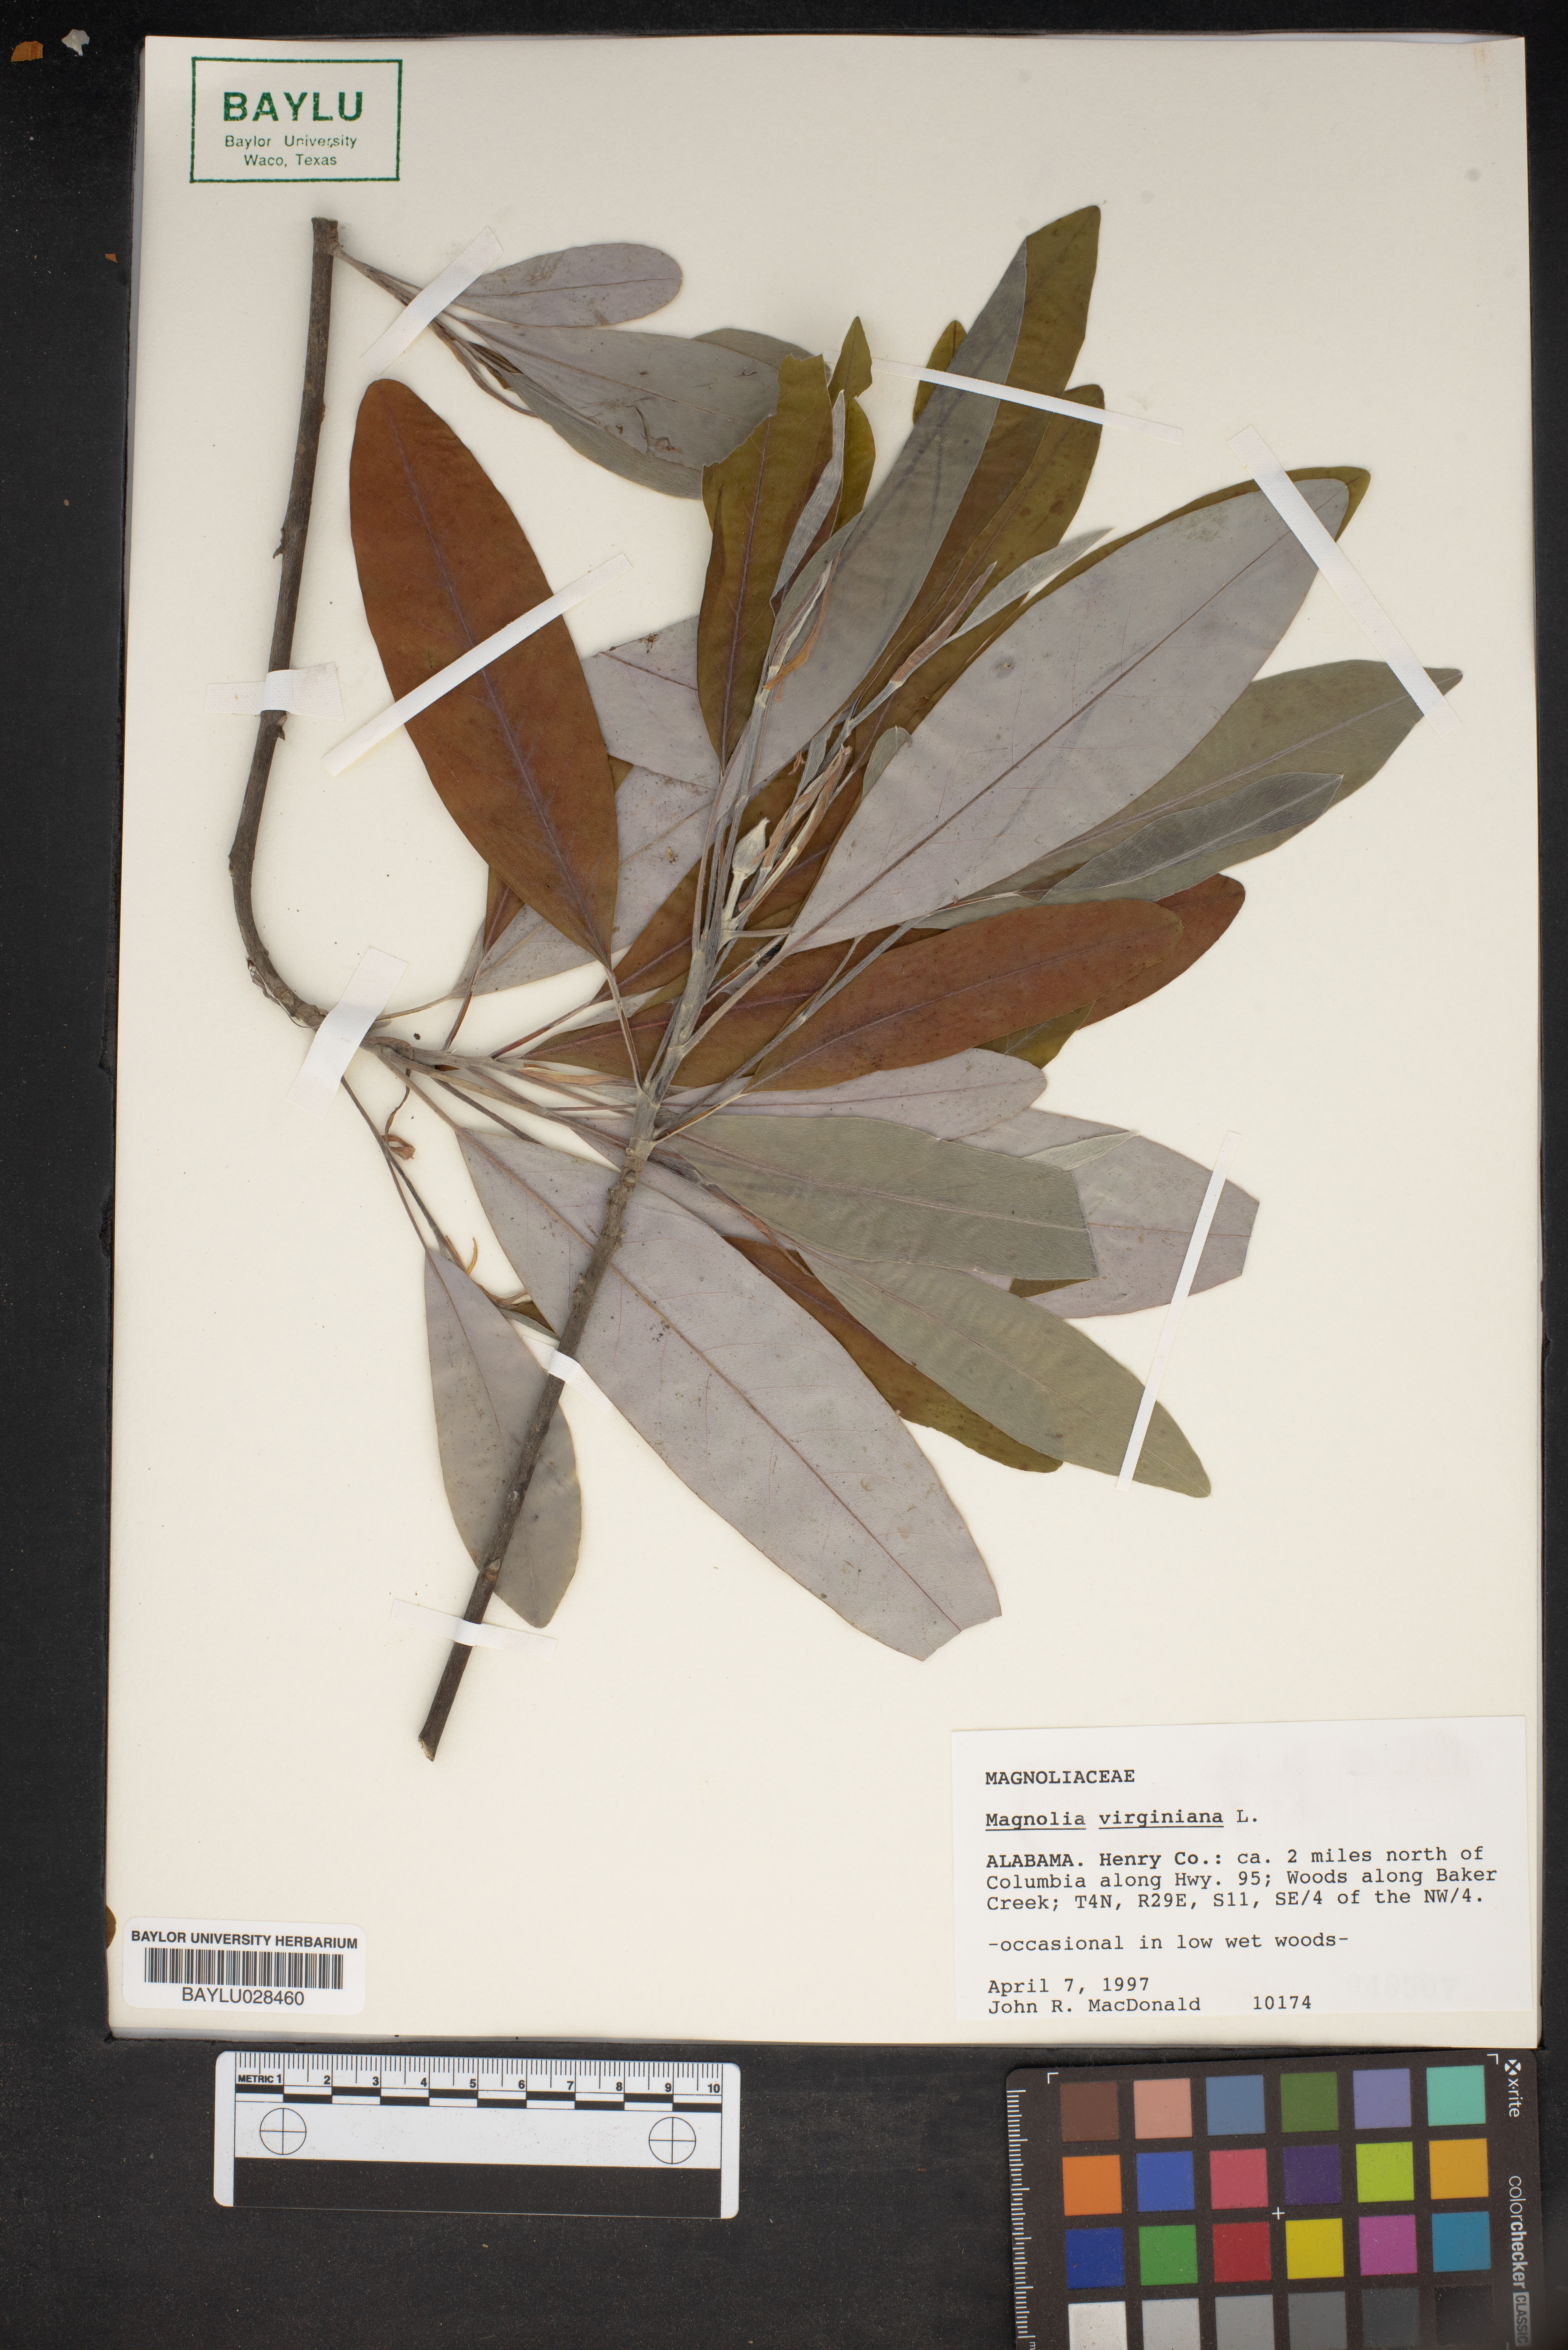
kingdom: Plantae
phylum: Tracheophyta
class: Magnoliopsida
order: Magnoliales
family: Magnoliaceae
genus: Magnolia
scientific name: Magnolia virginiana
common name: Swamp bay
